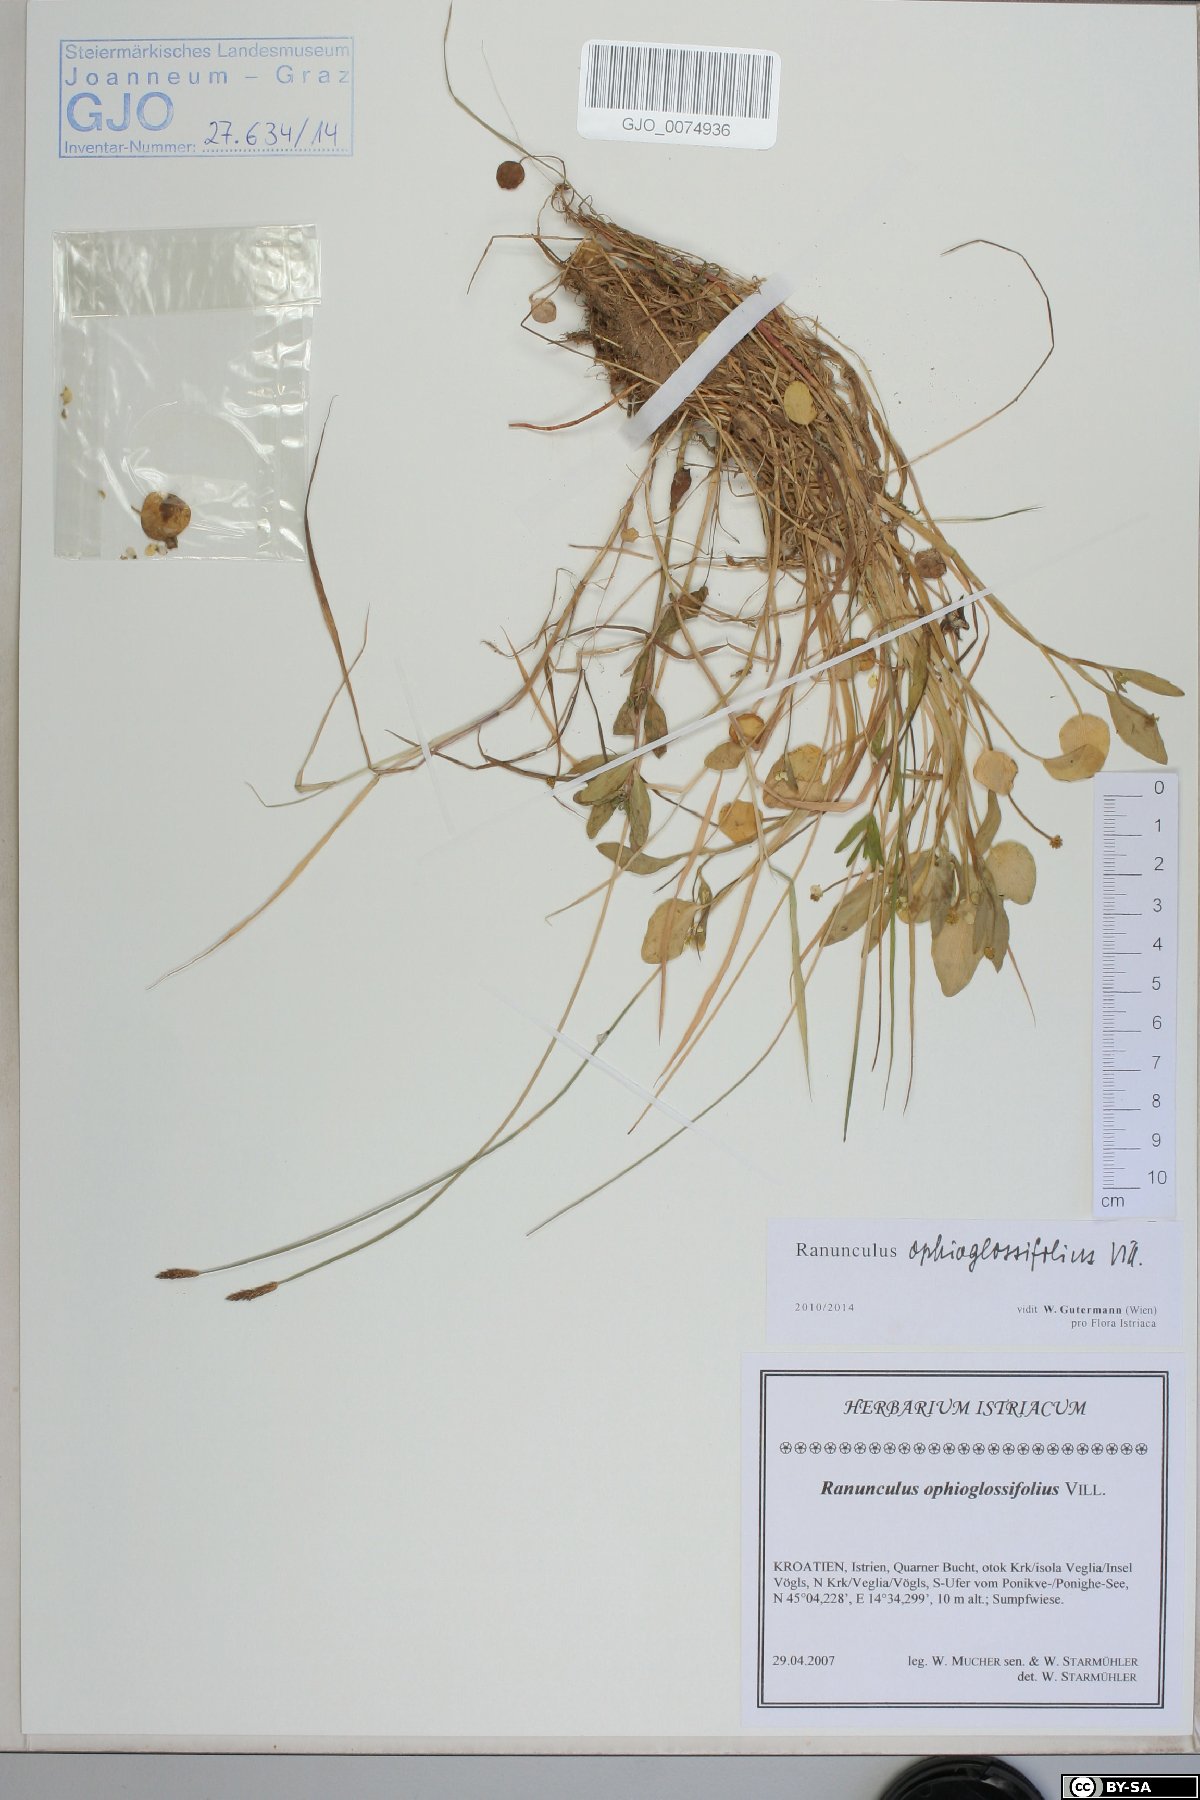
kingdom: Plantae
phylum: Tracheophyta
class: Magnoliopsida
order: Ranunculales
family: Ranunculaceae
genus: Ranunculus
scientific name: Ranunculus ophioglossifolius
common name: Adder's-tongue spearwort
